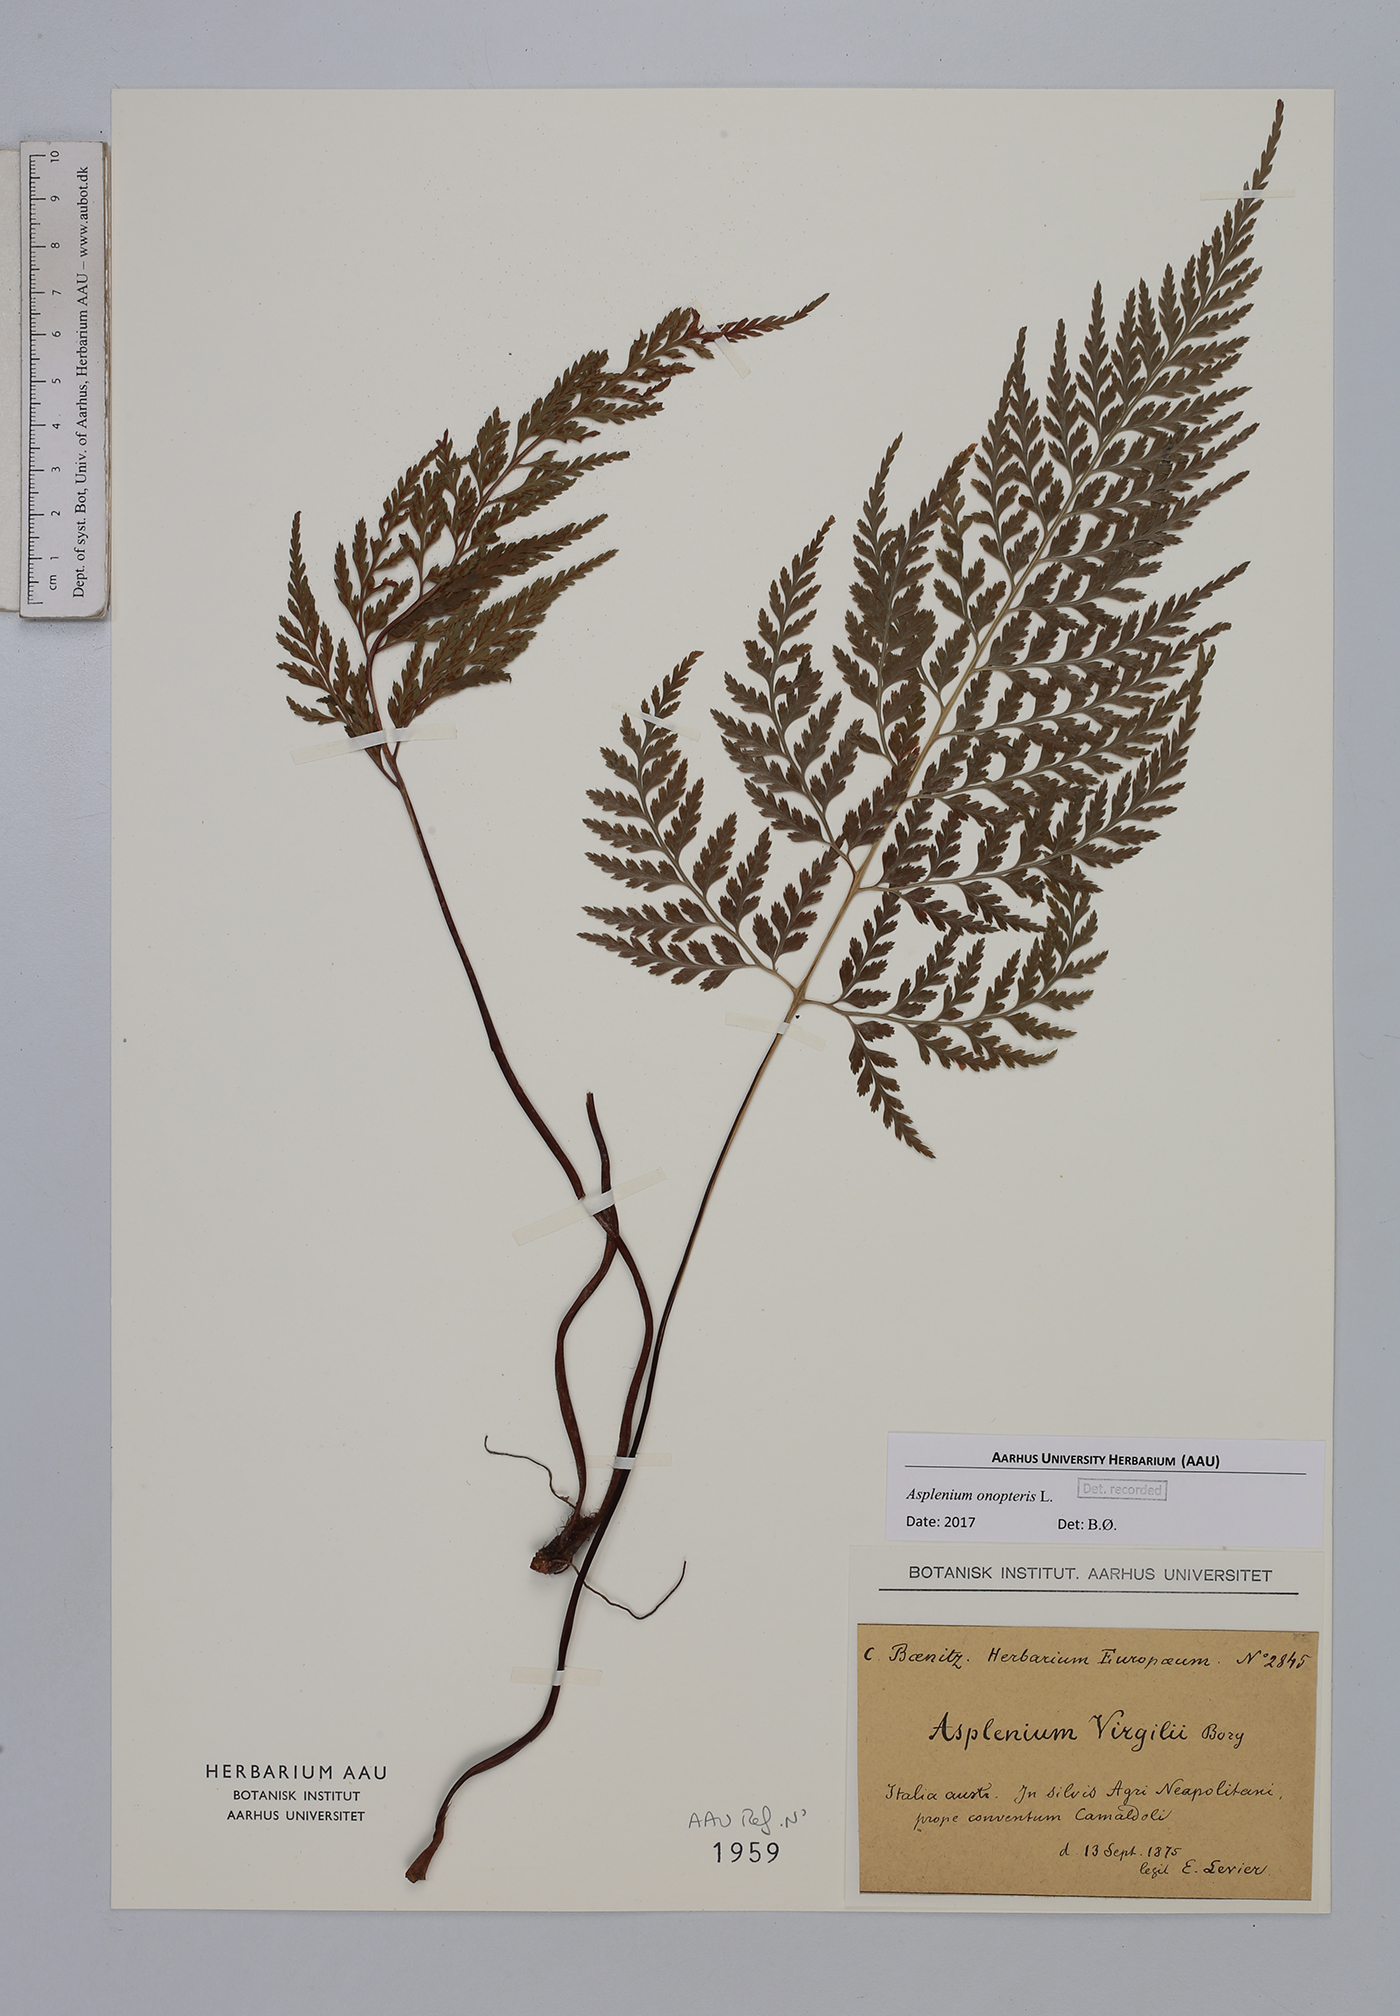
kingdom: Plantae
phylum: Tracheophyta
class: Polypodiopsida
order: Polypodiales
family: Aspleniaceae
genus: Asplenium
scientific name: Asplenium onopteris
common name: Irish spleenwort
